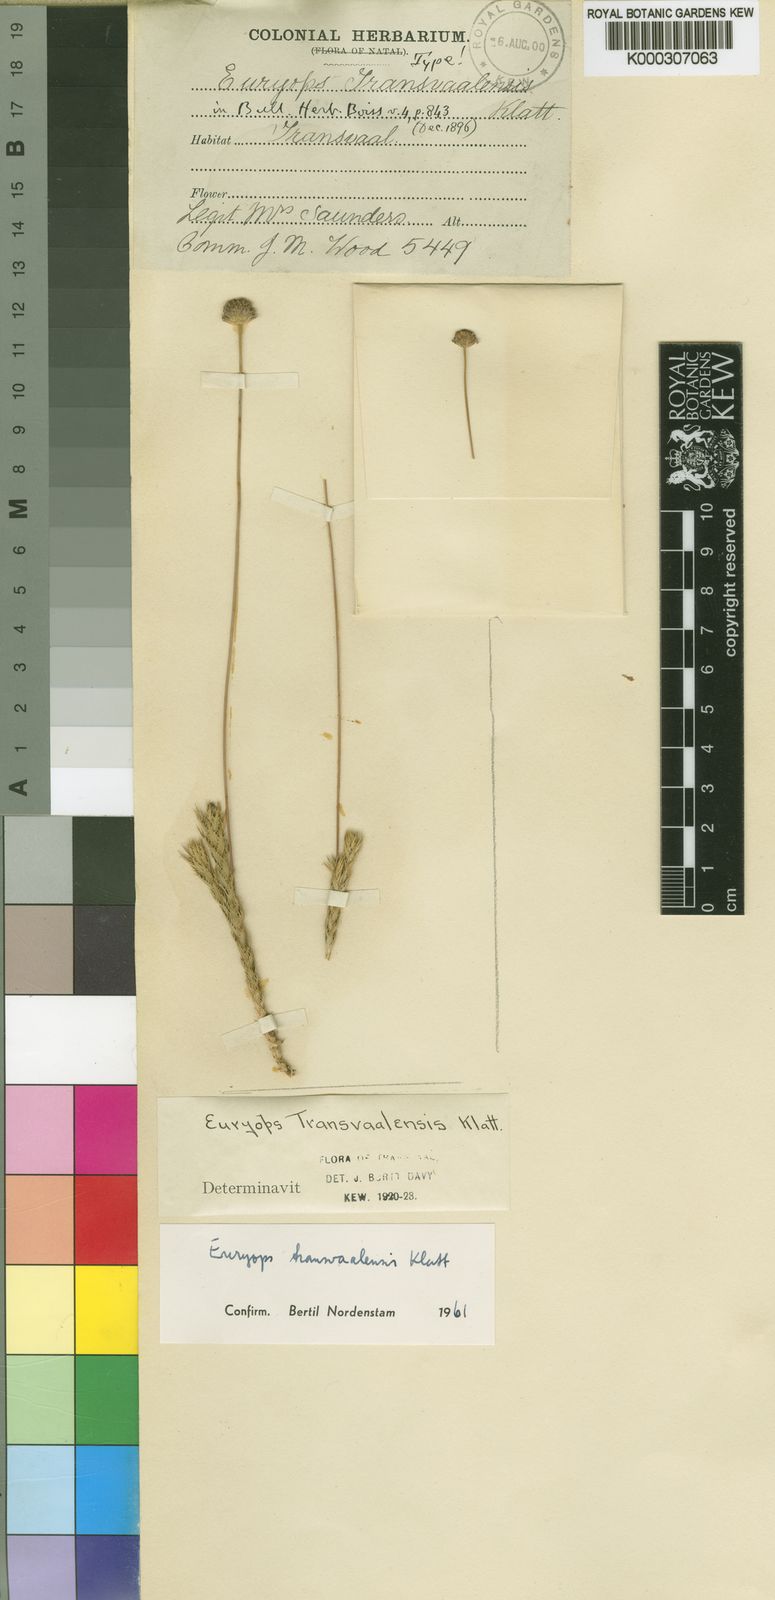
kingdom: Plantae
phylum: Tracheophyta
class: Magnoliopsida
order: Asterales
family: Asteraceae
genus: Euryops
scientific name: Euryops transvaalensis
